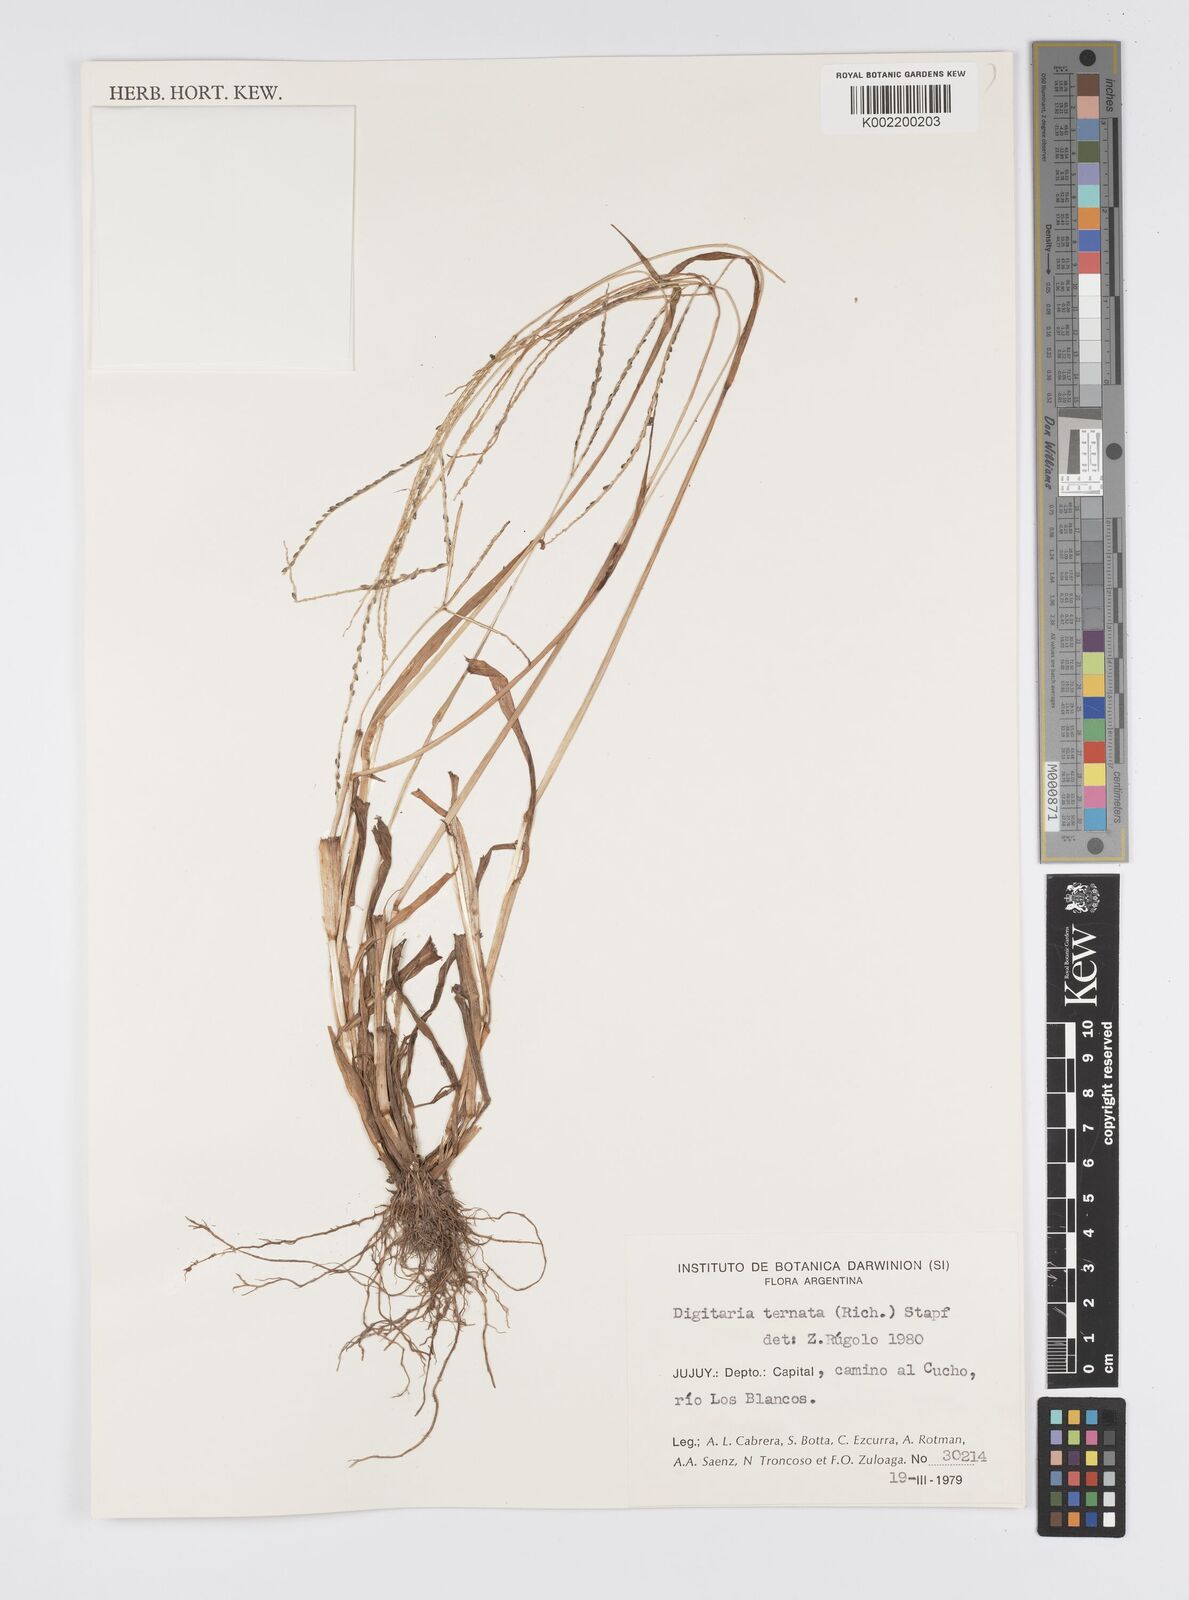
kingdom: Plantae
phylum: Tracheophyta
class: Liliopsida
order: Poales
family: Poaceae
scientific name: Poaceae
